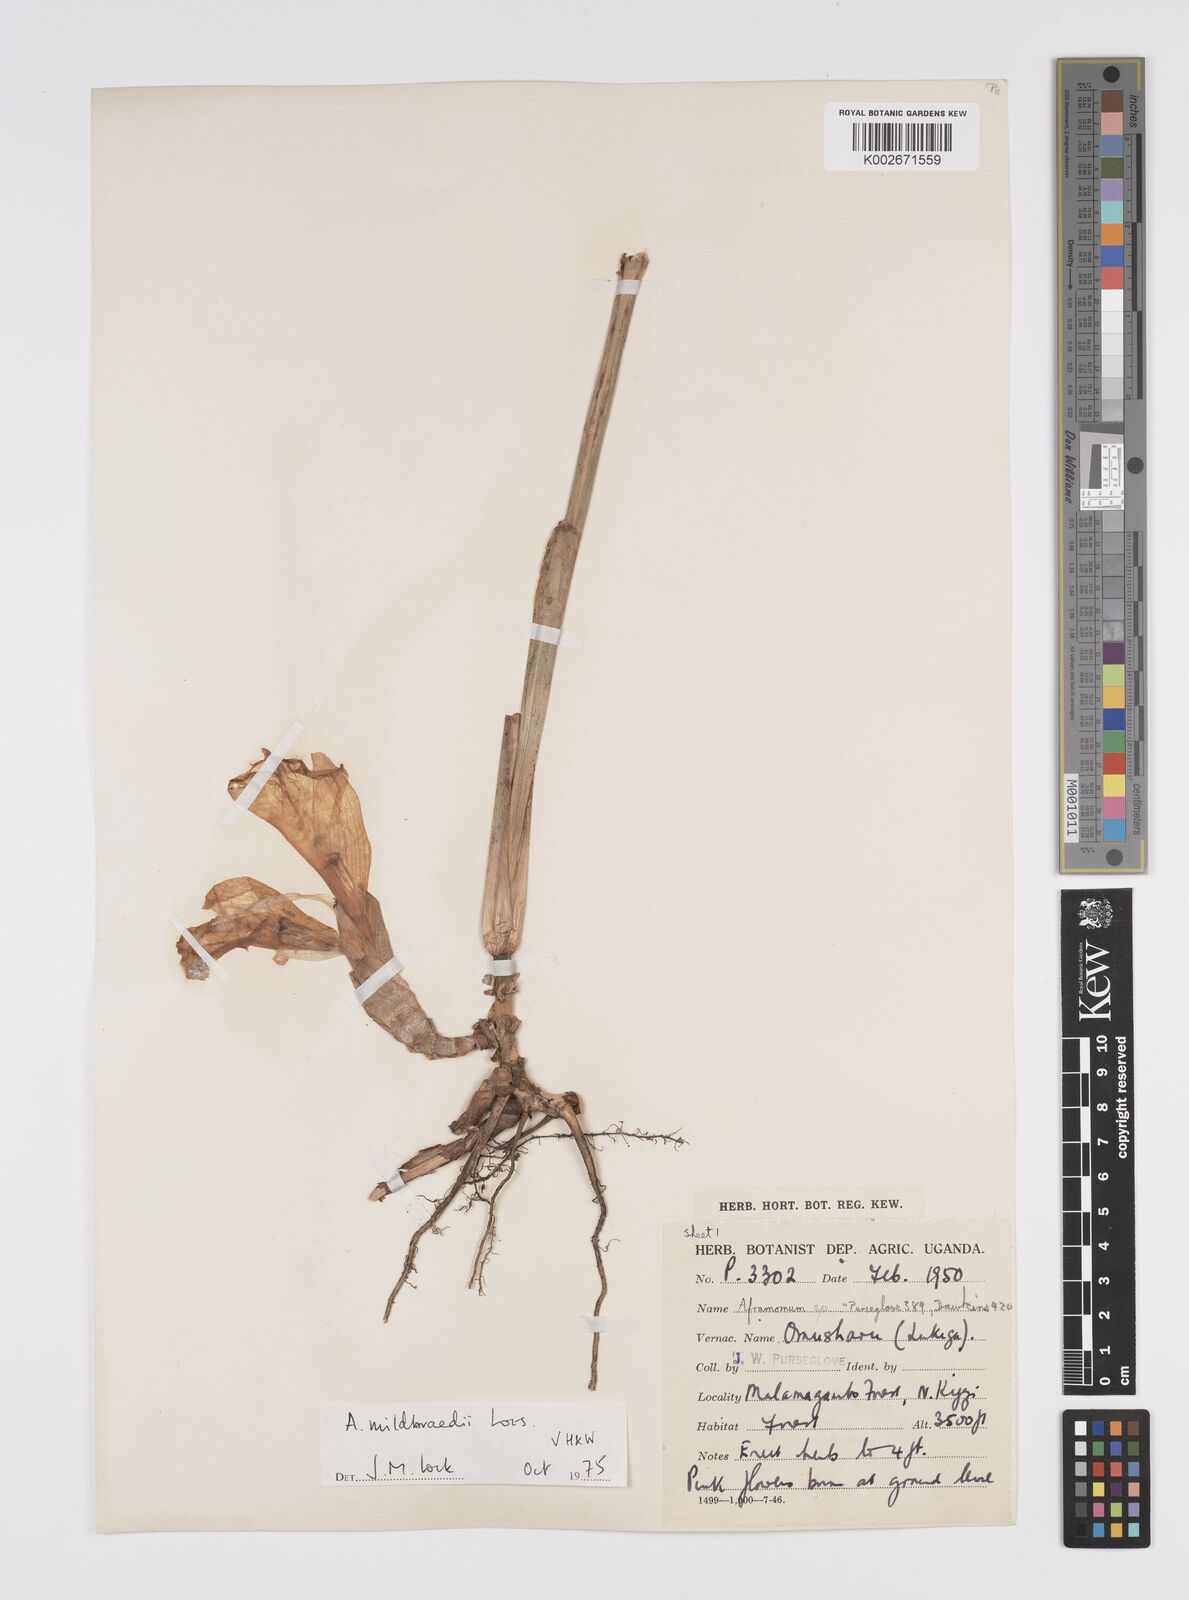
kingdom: Plantae
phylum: Tracheophyta
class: Liliopsida
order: Zingiberales
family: Zingiberaceae
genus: Aframomum
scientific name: Aframomum mildbraedii
